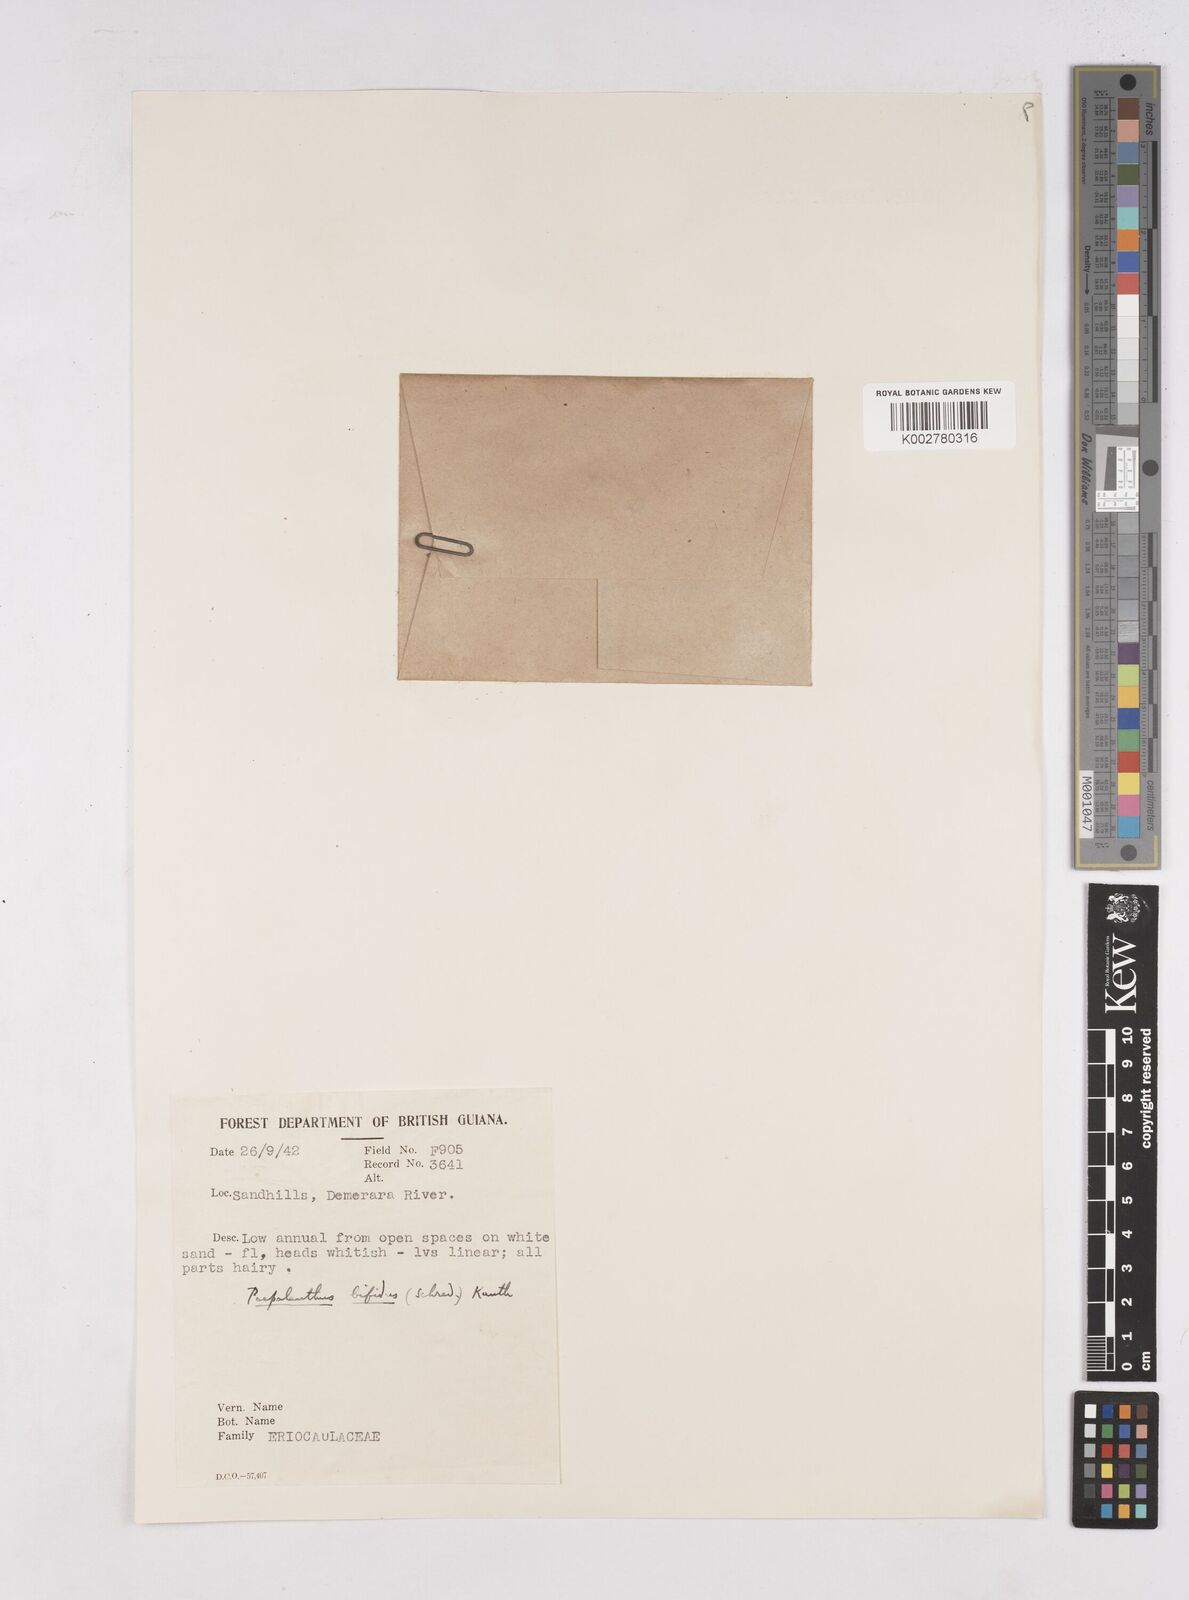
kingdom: Plantae
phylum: Tracheophyta
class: Liliopsida
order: Poales
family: Eriocaulaceae
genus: Paepalanthus
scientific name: Paepalanthus bifidus
